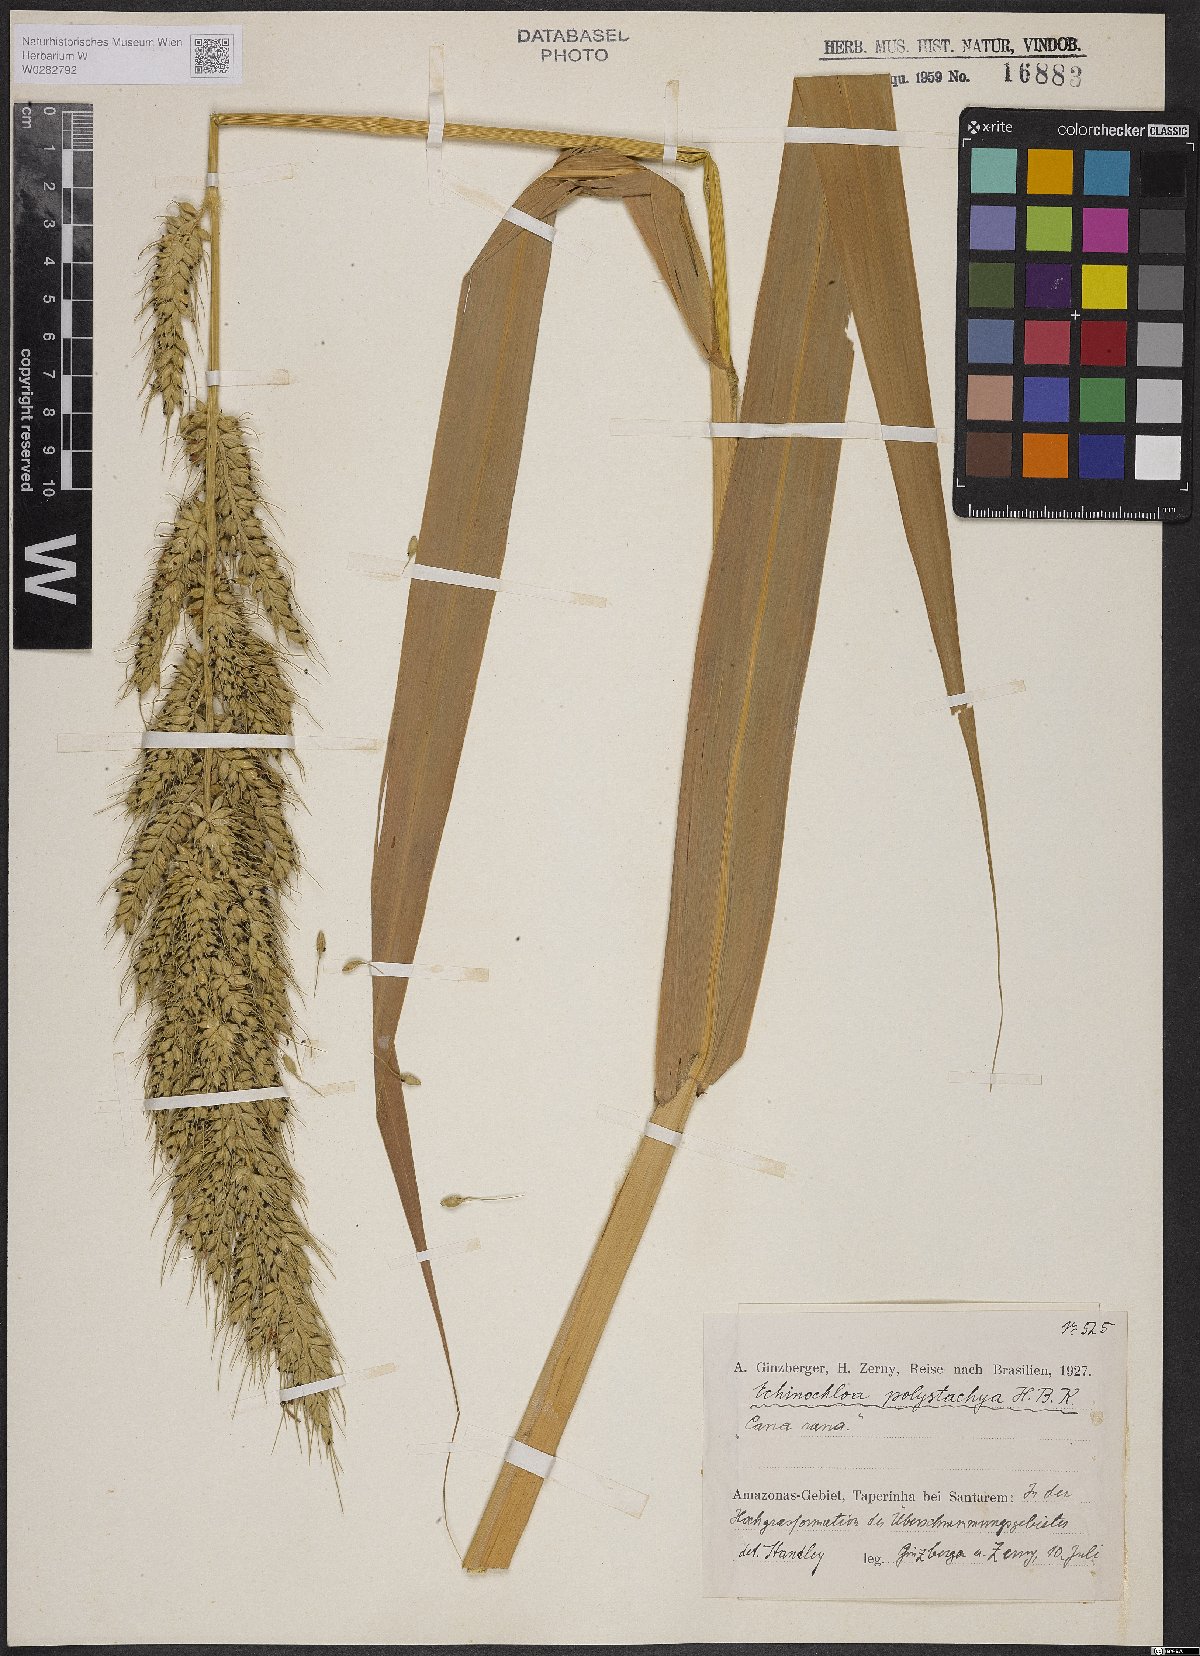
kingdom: Plantae
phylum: Tracheophyta
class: Liliopsida
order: Poales
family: Poaceae
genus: Echinochloa
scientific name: Echinochloa polystachya
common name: Creeping river grass
